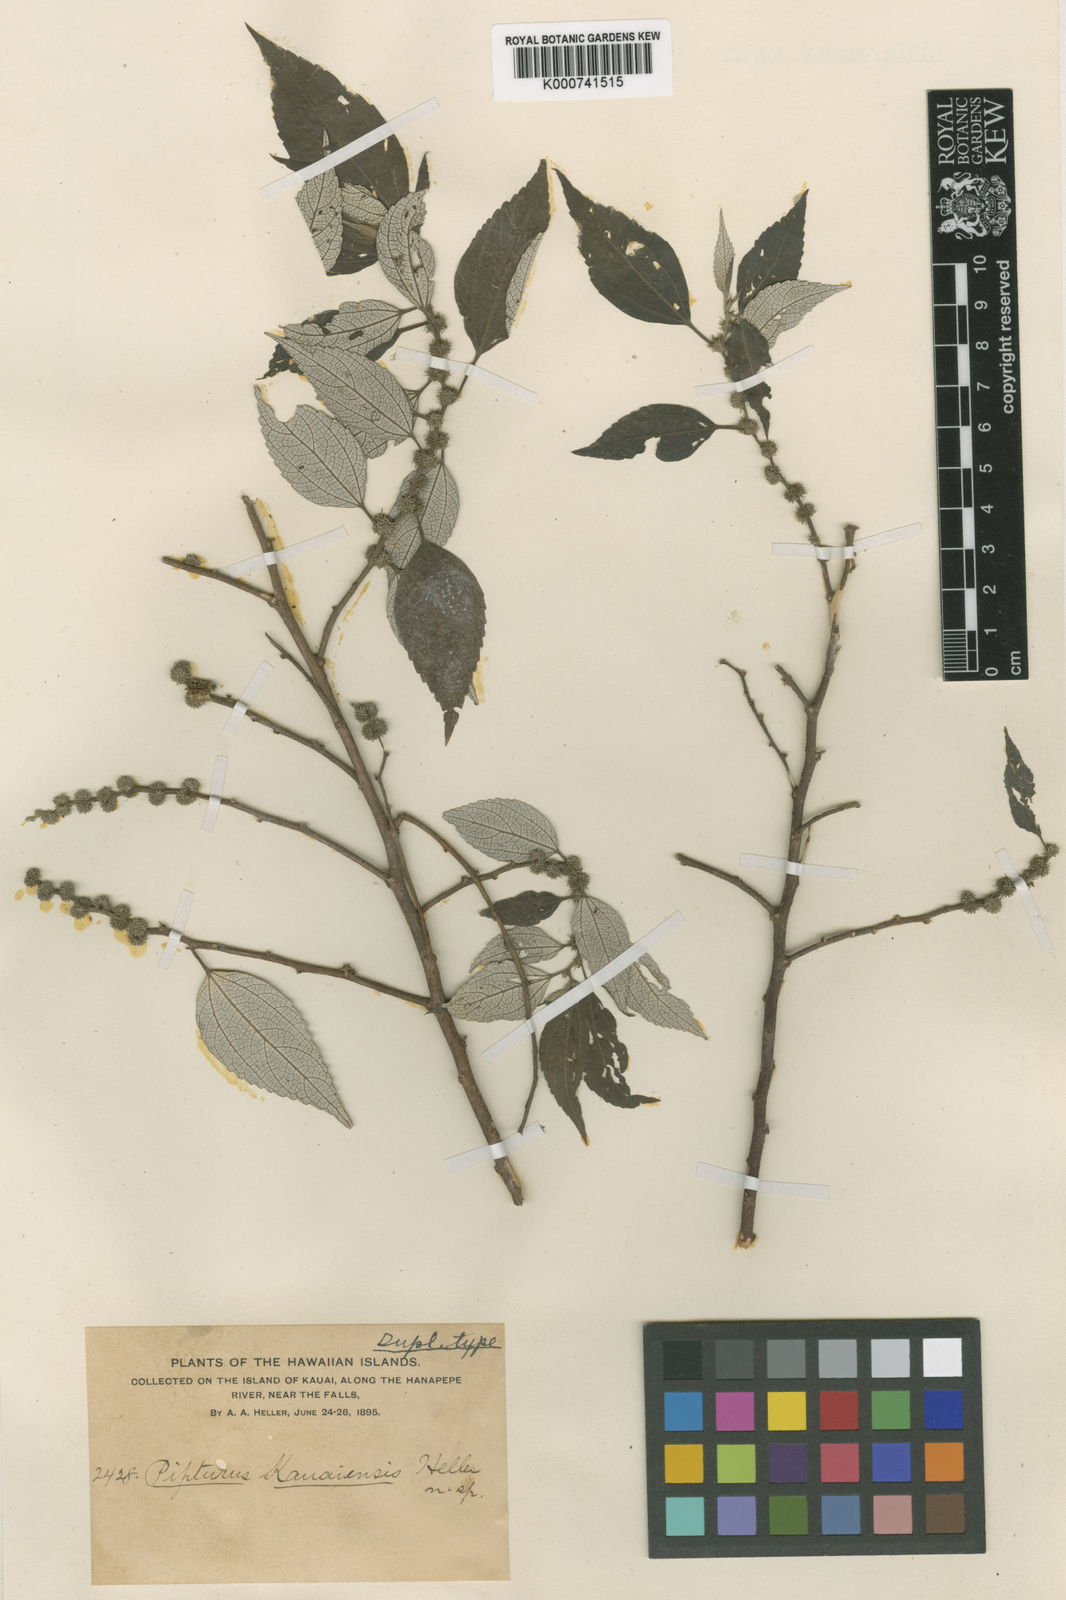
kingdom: Plantae
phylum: Tracheophyta
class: Magnoliopsida
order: Rosales
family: Urticaceae
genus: Pipturus
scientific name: Pipturus kauaiensis
